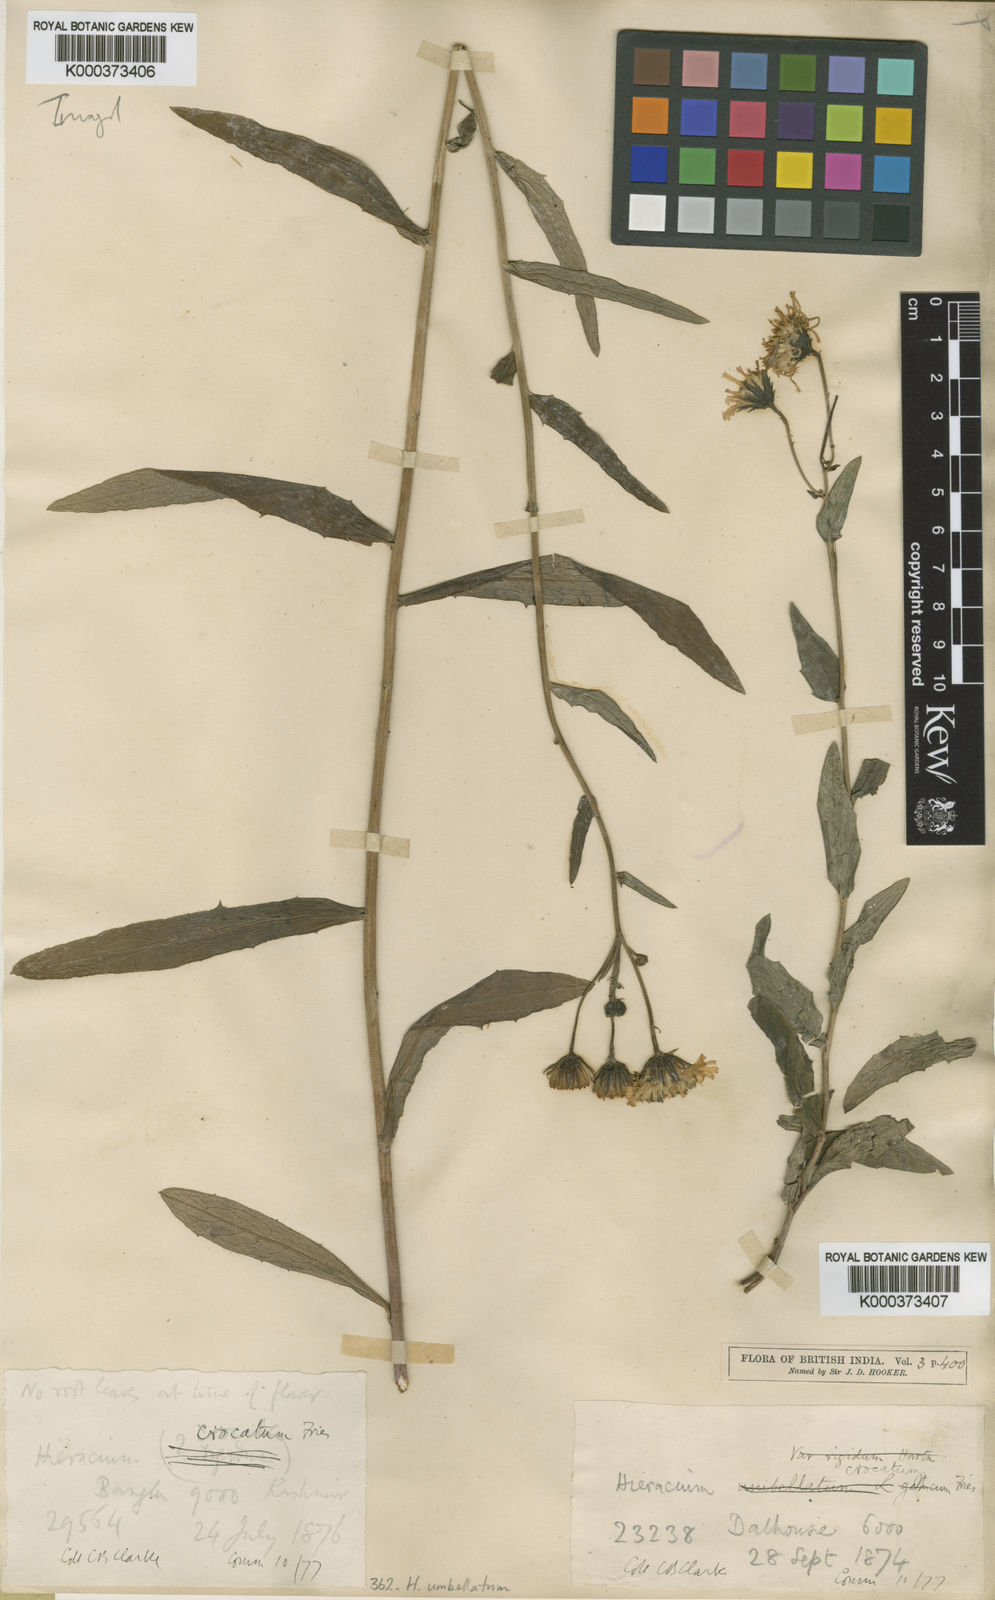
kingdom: Plantae
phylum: Tracheophyta
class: Magnoliopsida
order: Asterales
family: Asteraceae
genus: Hieracium
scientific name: Hieracium umbellatum
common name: Northern hawkweed
